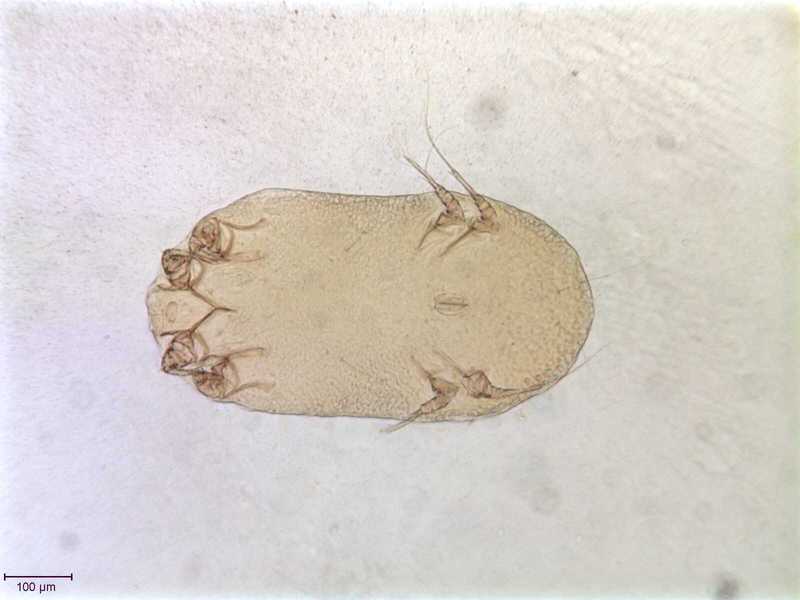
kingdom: Animalia
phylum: Arthropoda
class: Arachnida
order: Sarcoptiformes
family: Gabuciniidae
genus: Gabucinia
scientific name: Gabucinia nisi
